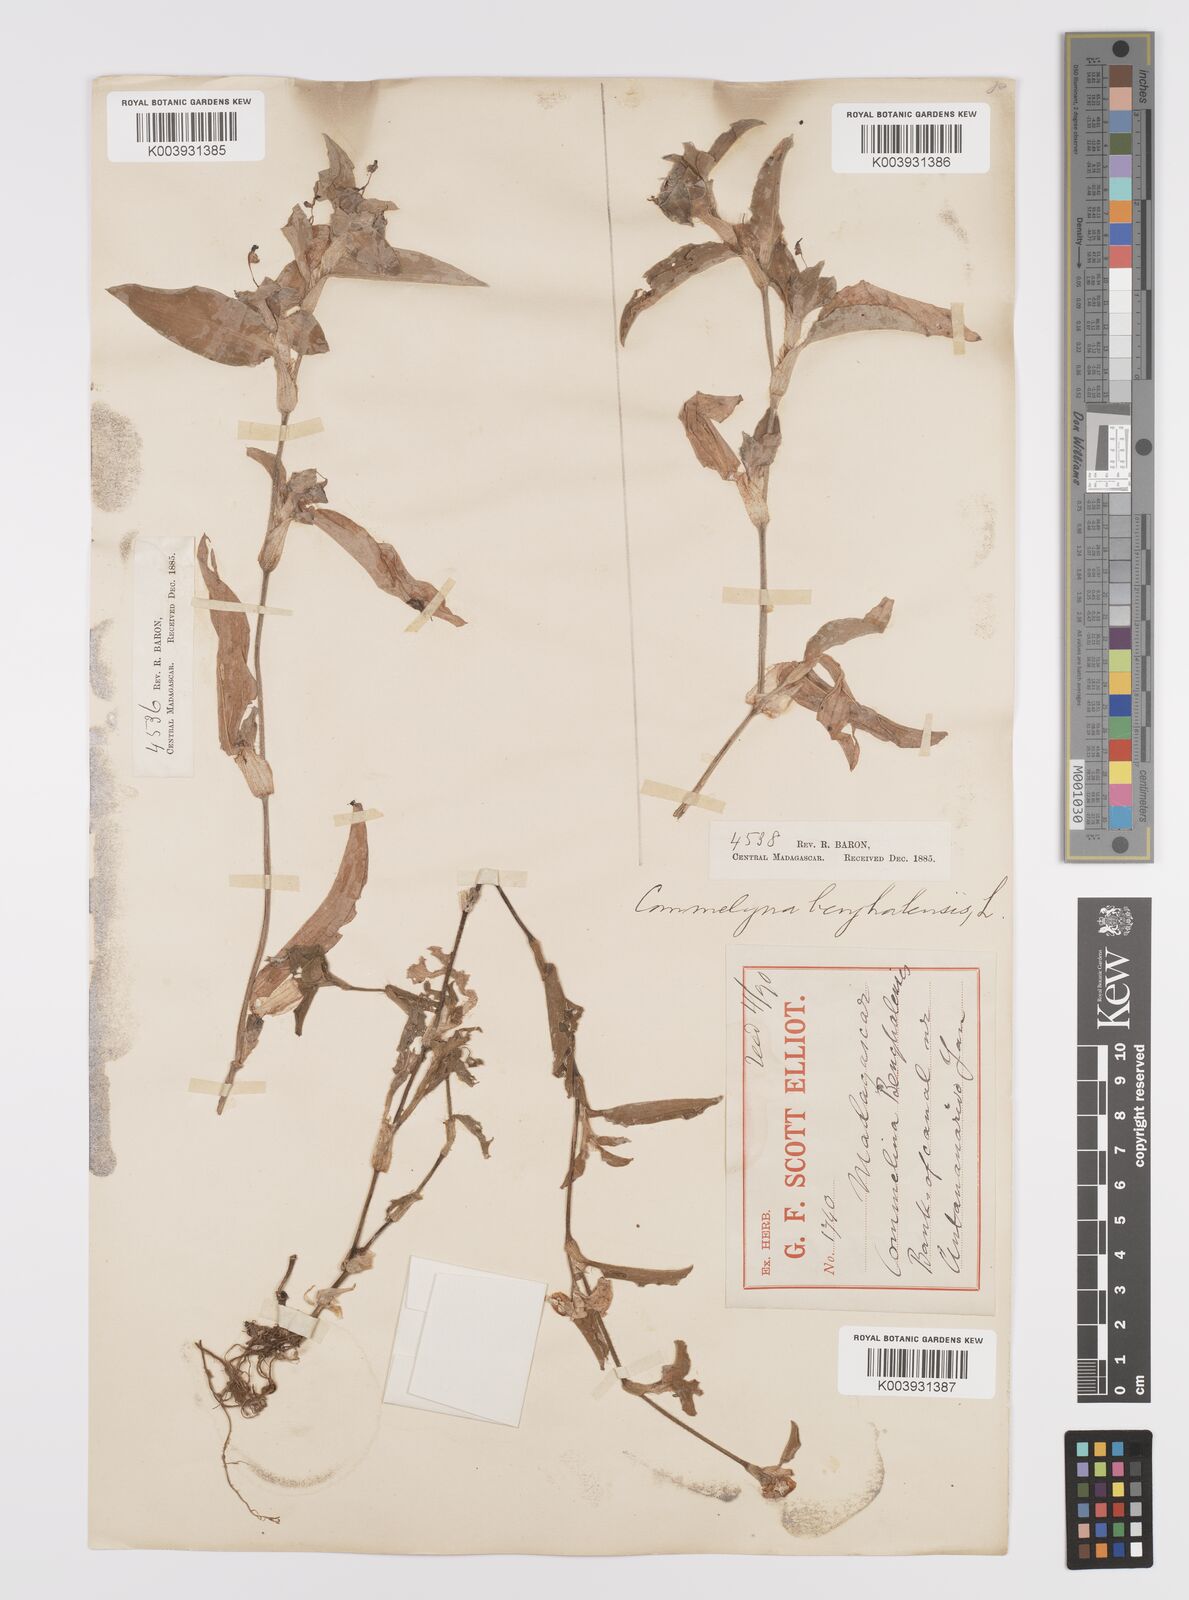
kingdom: Plantae
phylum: Tracheophyta
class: Liliopsida
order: Commelinales
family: Commelinaceae
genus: Commelina
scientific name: Commelina benghalensis
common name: Jio
